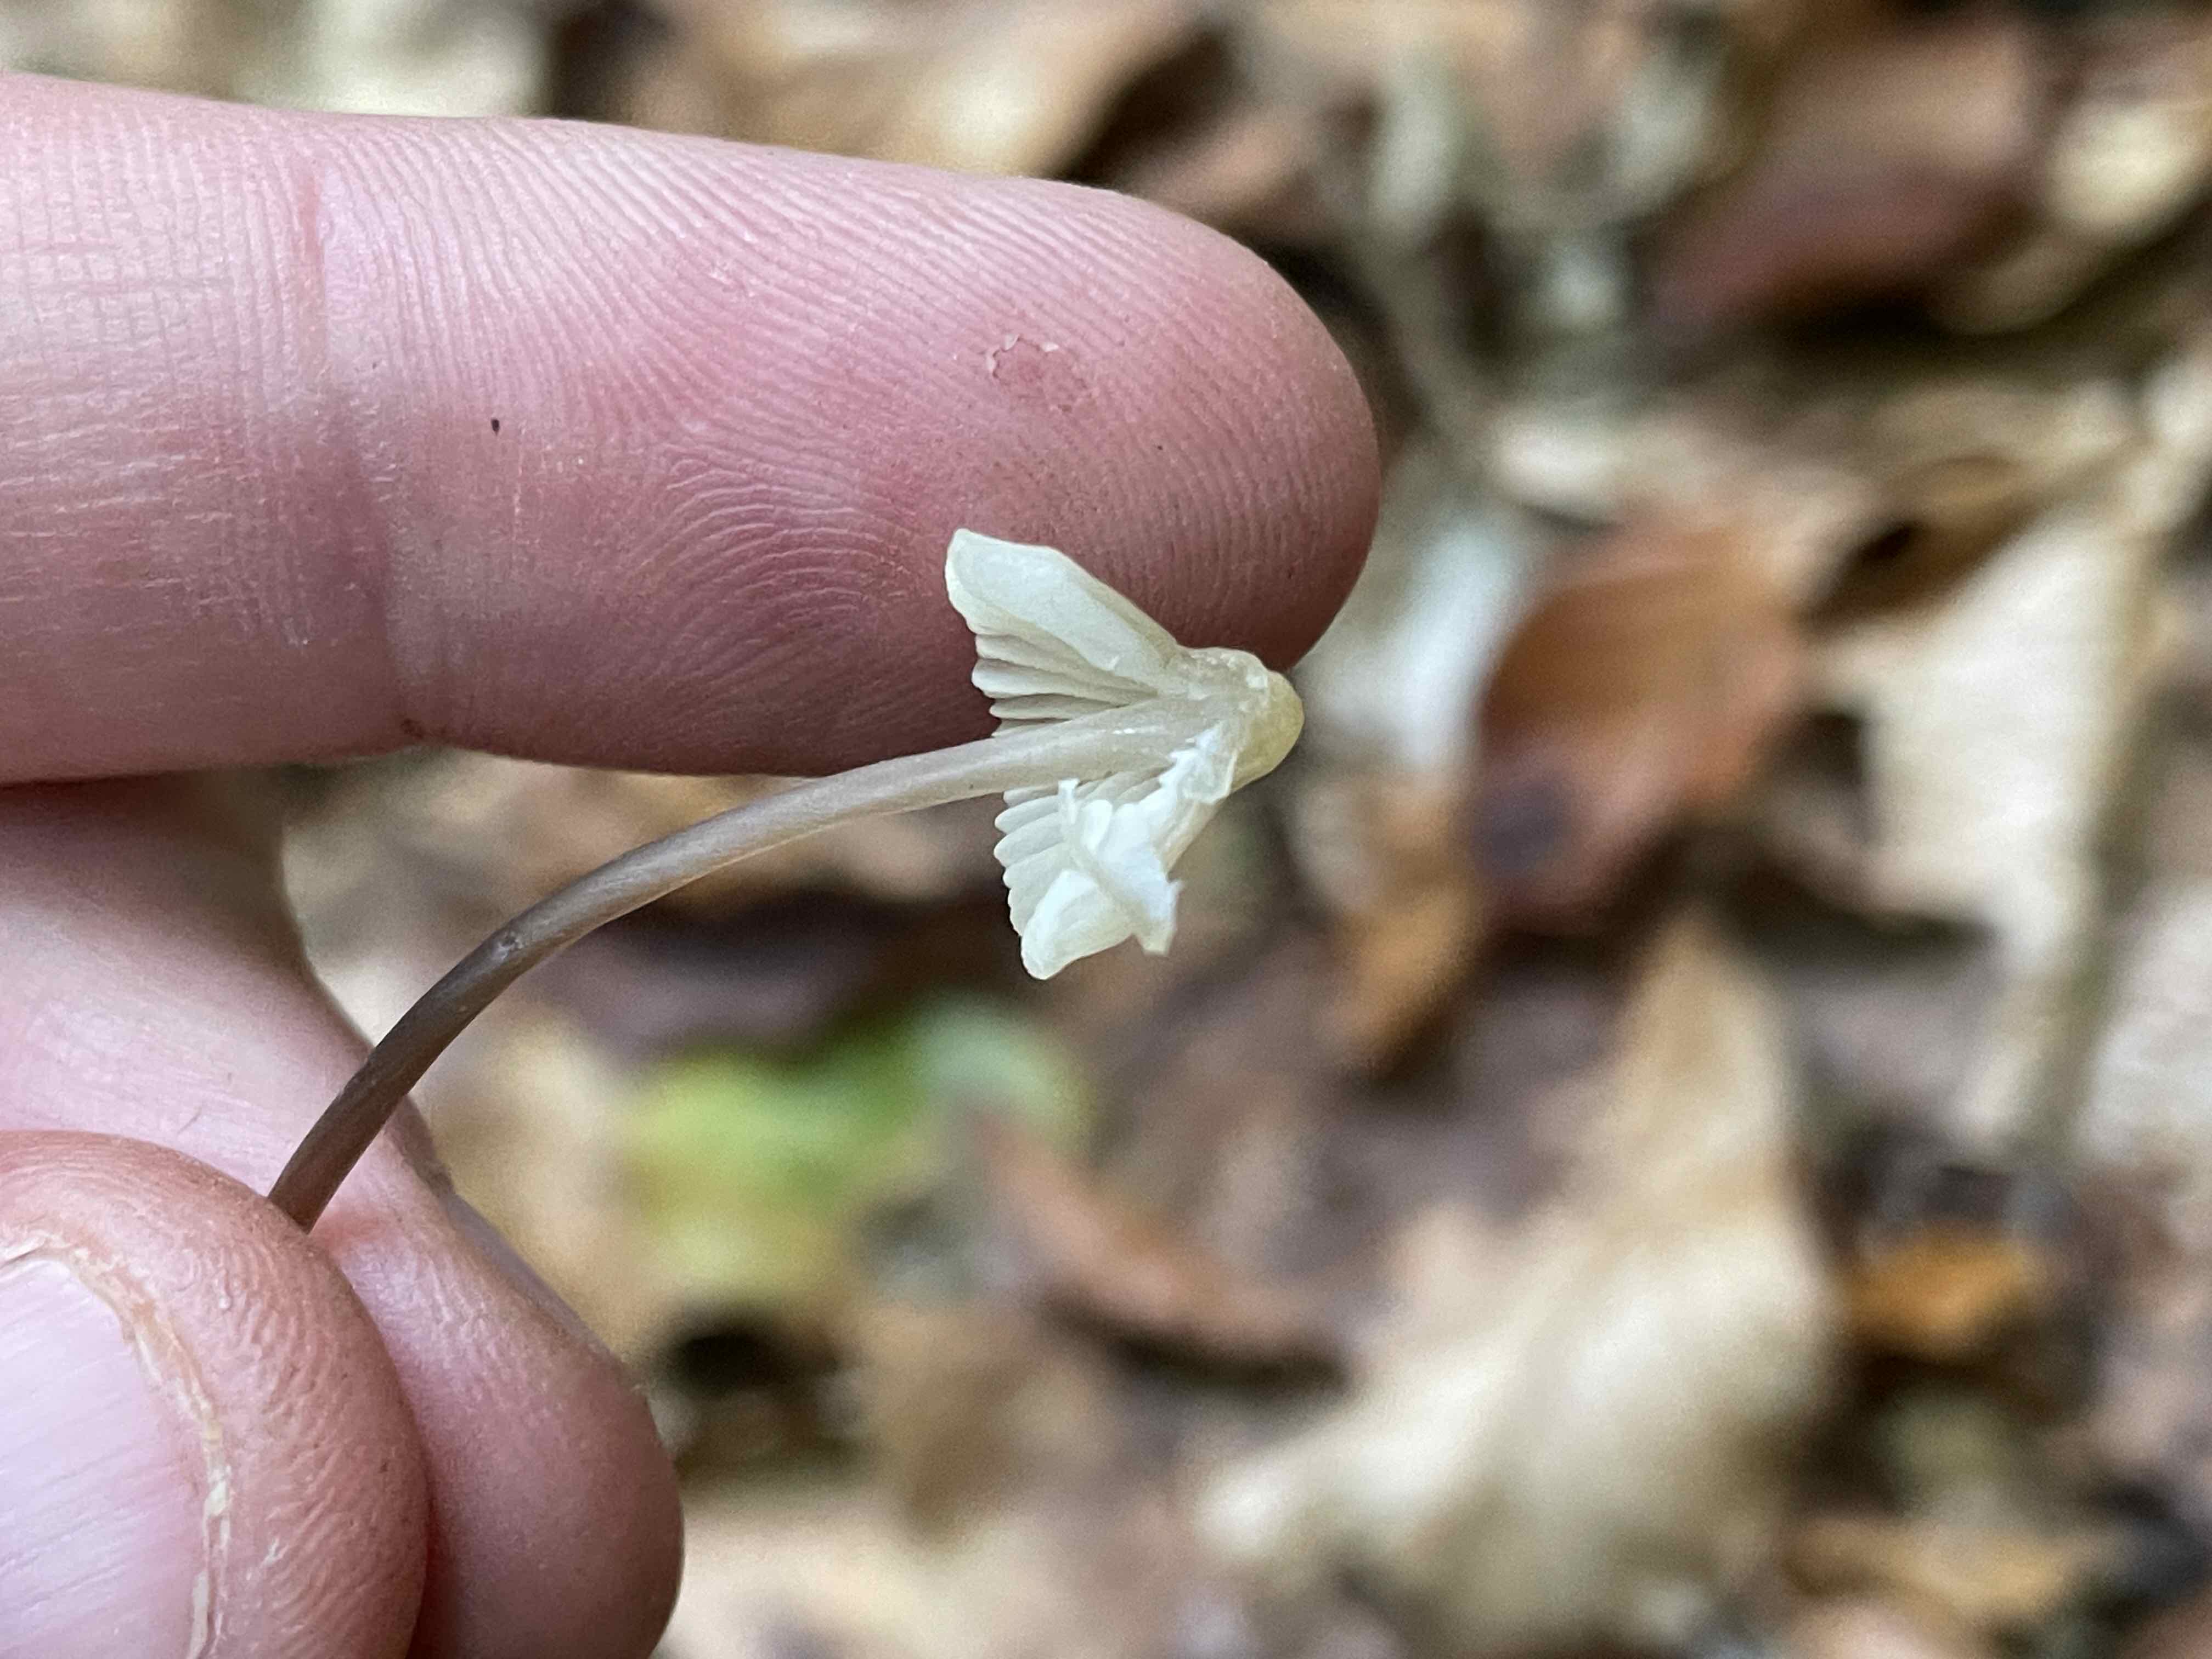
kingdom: Fungi
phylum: Basidiomycota
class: Agaricomycetes
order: Agaricales
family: Mycenaceae
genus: Mycena
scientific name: Mycena flavescens
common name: grågul huesvamp
